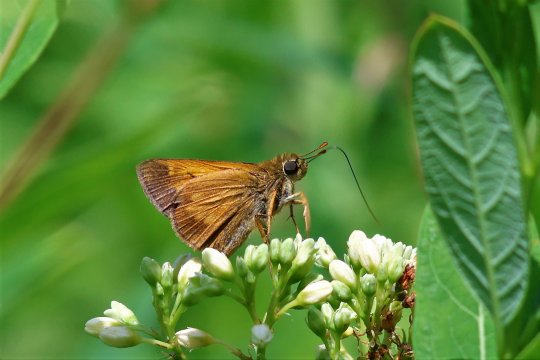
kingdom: Animalia
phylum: Arthropoda
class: Insecta
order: Lepidoptera
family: Hesperiidae
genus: Poanes
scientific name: Poanes yehl
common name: Yehl Skipper
